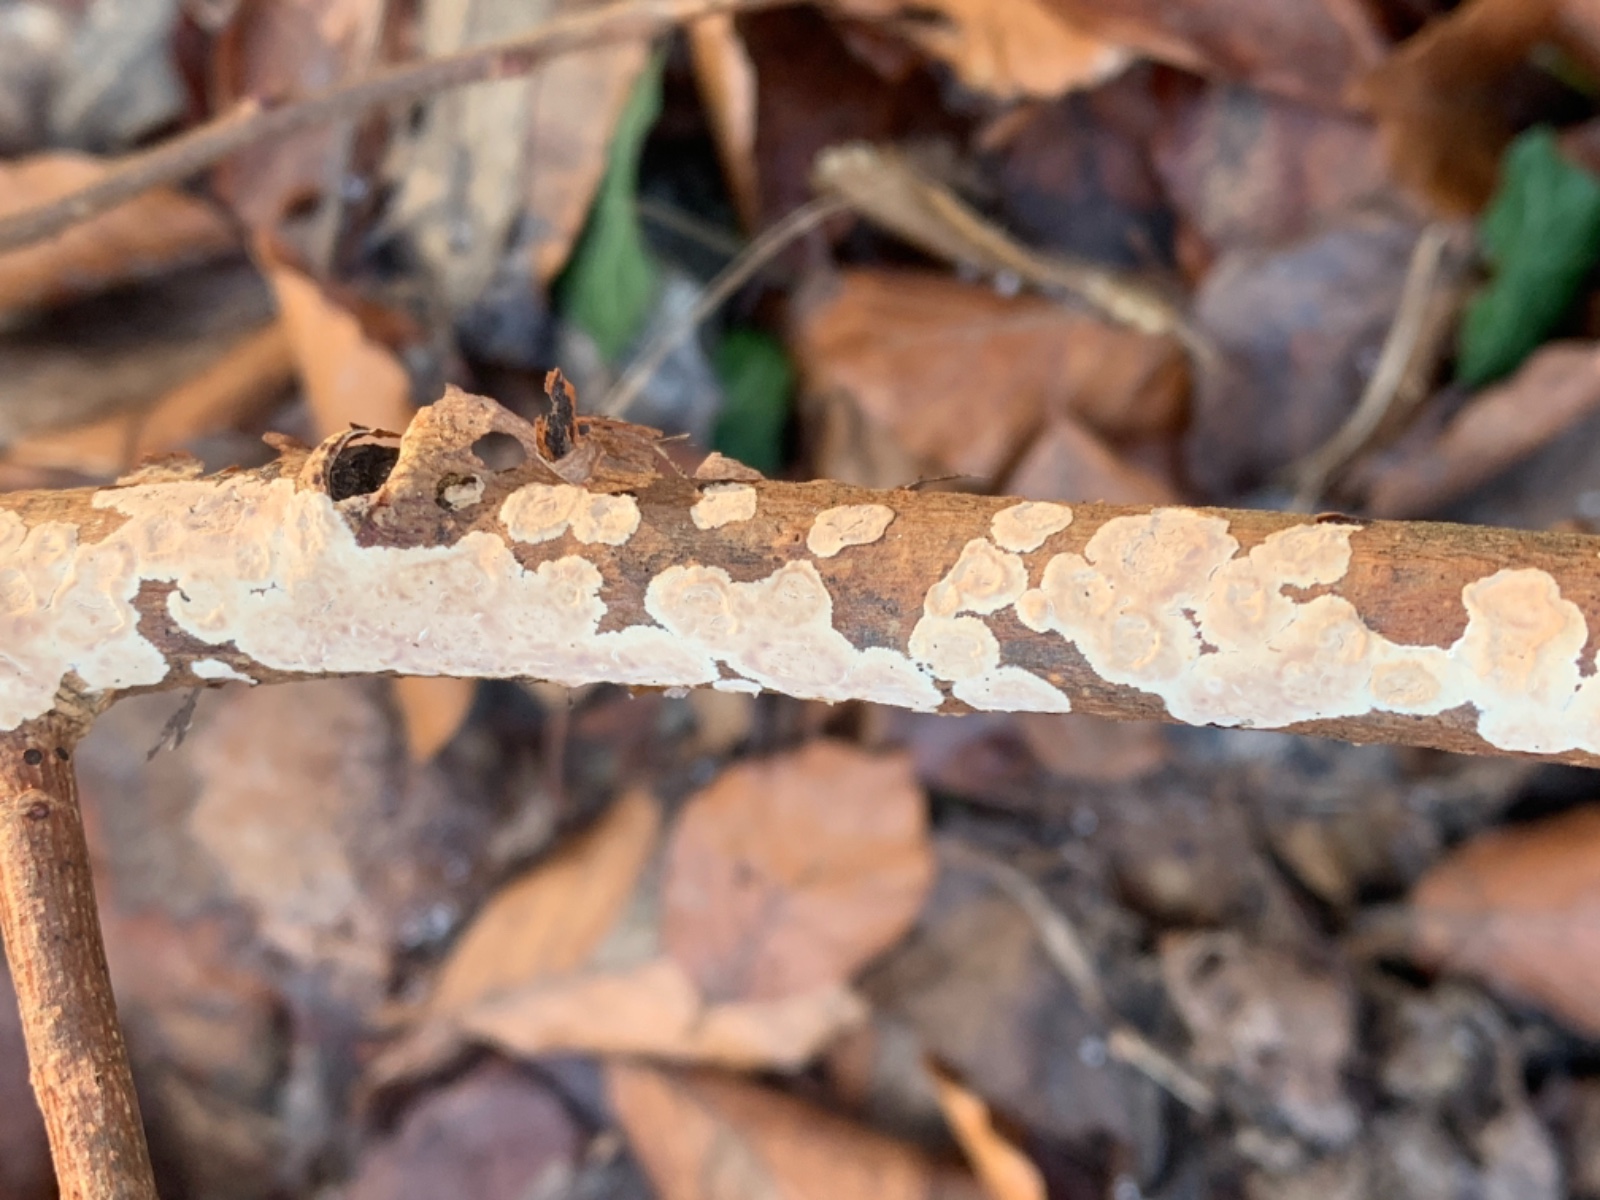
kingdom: Fungi
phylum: Basidiomycota
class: Agaricomycetes
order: Agaricales
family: Physalacriaceae
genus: Cylindrobasidium
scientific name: Cylindrobasidium evolvens
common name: sprækkehinde
